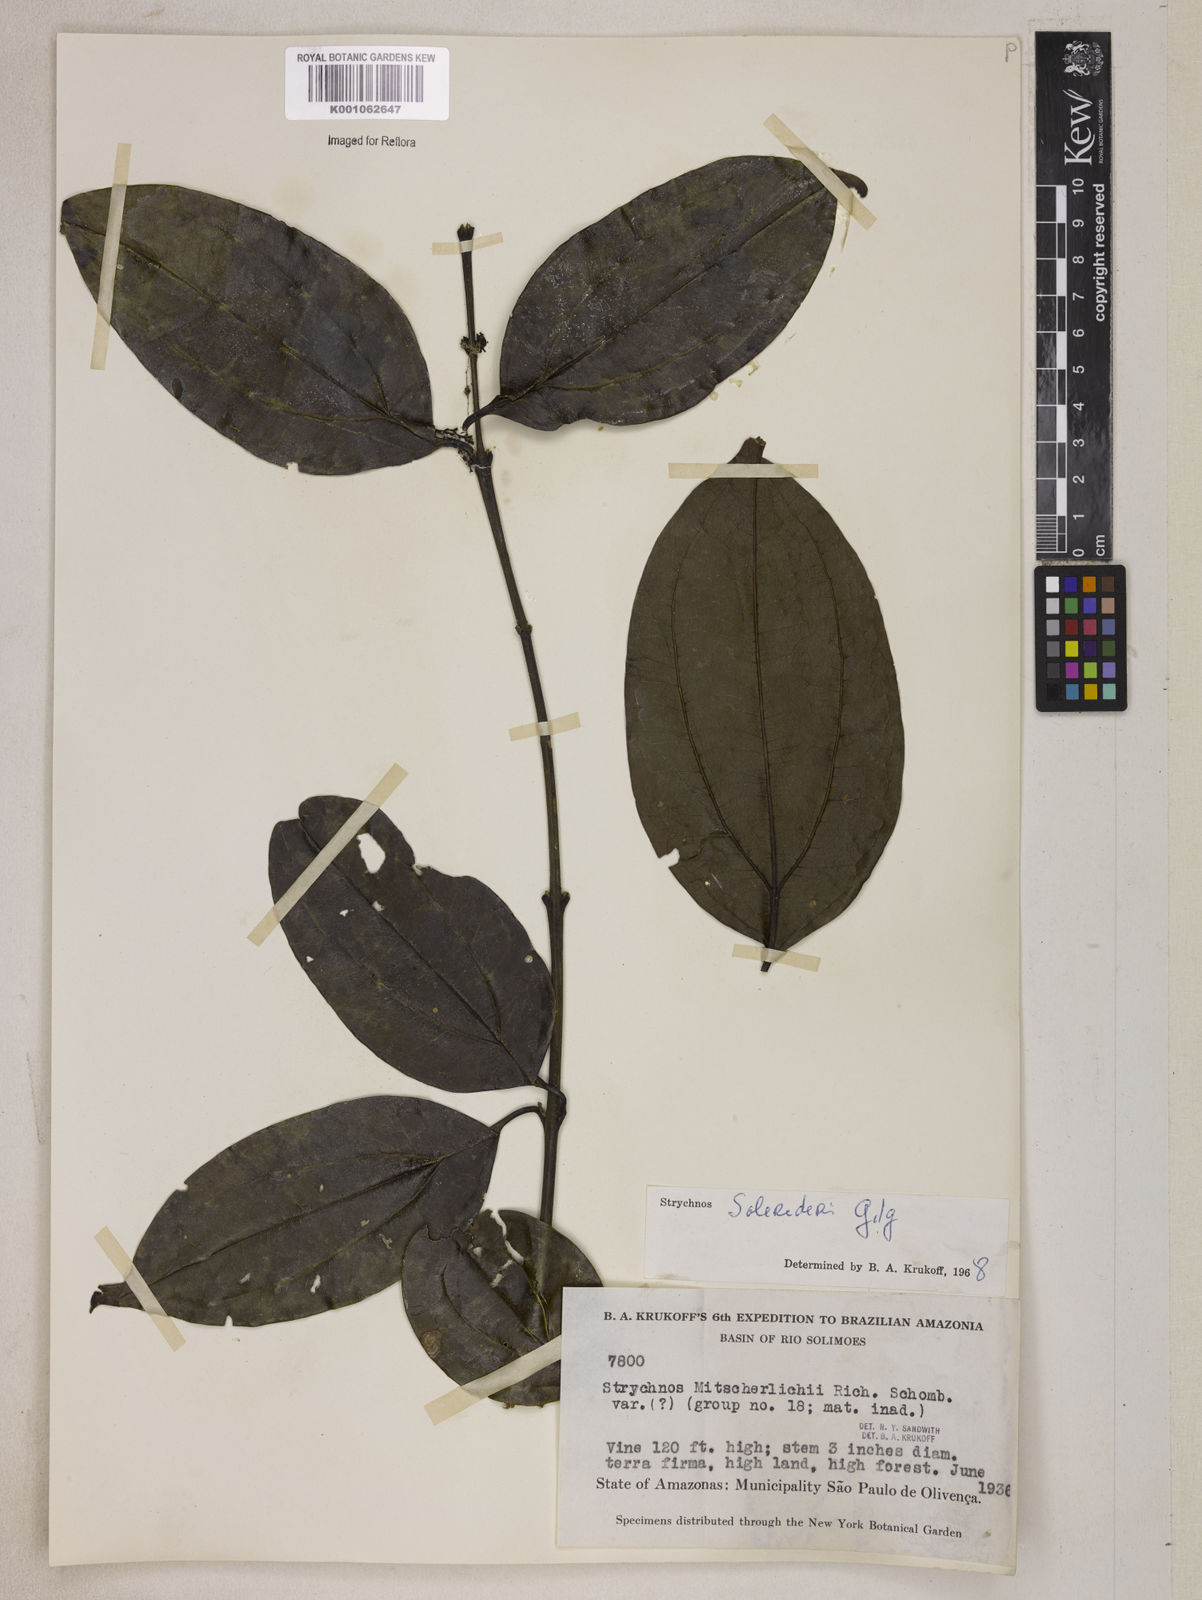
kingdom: Plantae
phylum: Tracheophyta
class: Magnoliopsida
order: Gentianales
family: Loganiaceae
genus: Strychnos
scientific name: Strychnos solerederi
